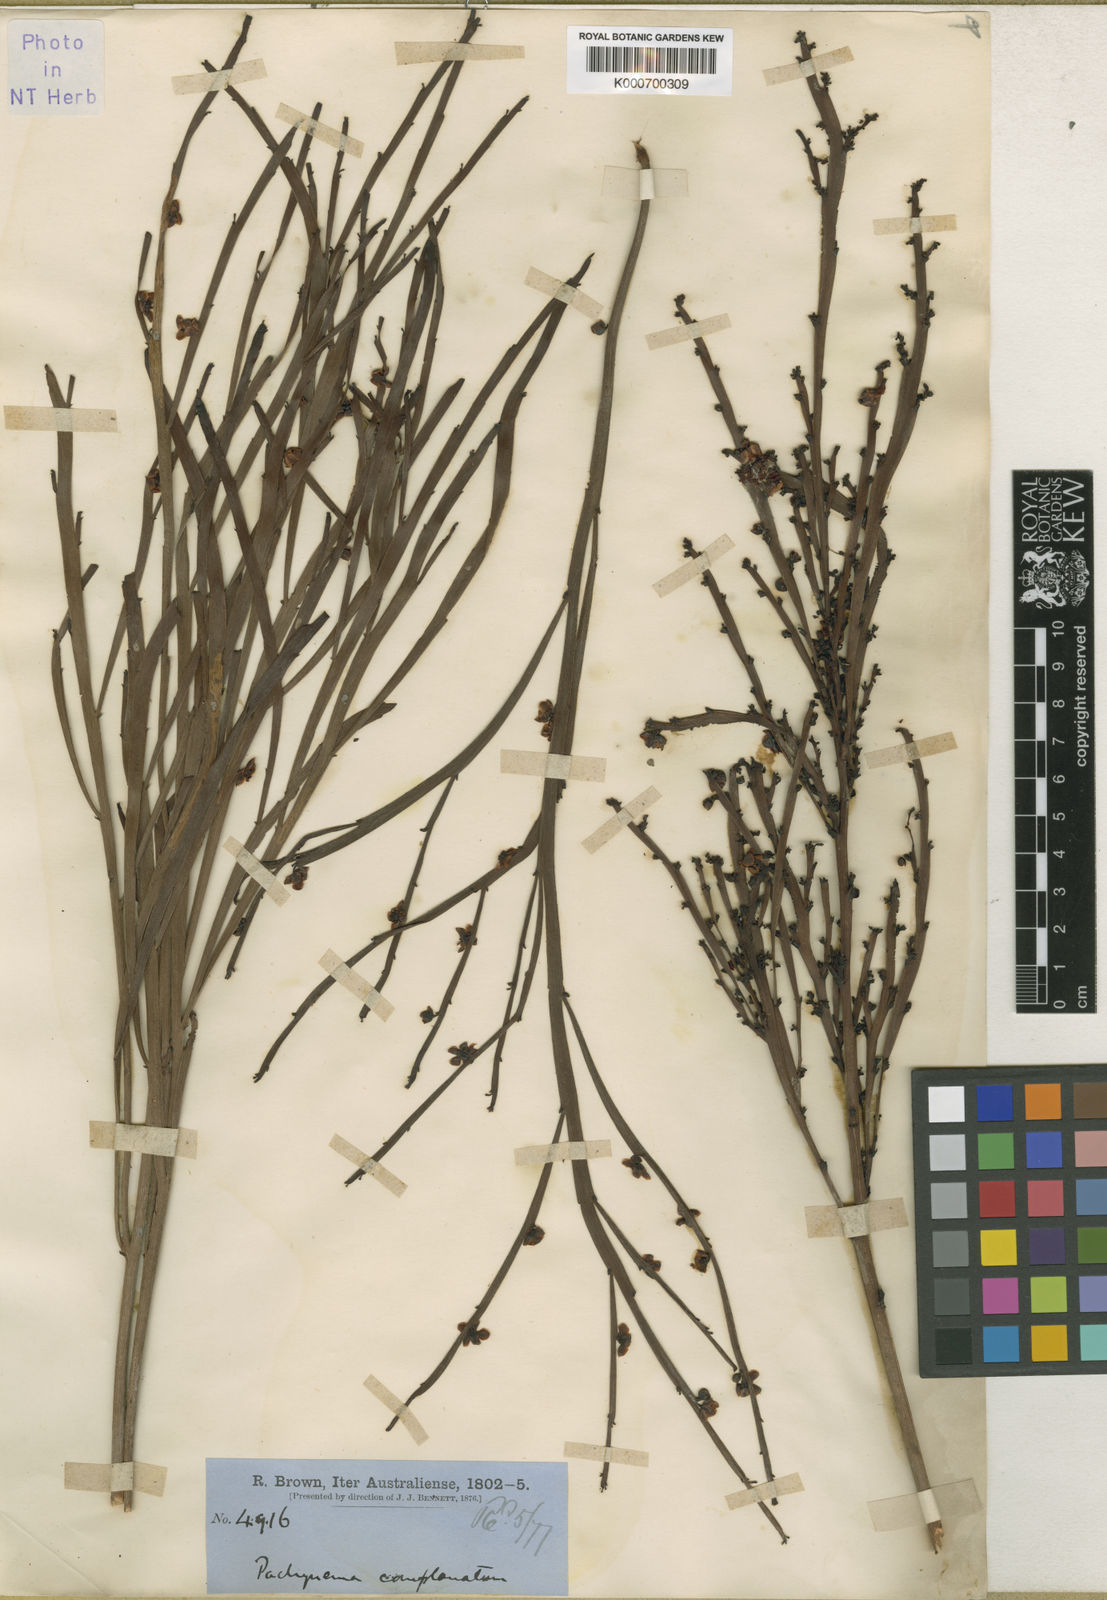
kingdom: Plantae
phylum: Tracheophyta
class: Magnoliopsida
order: Dilleniales
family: Dilleniaceae
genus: Hibbertia
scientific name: Hibbertia persquamata
